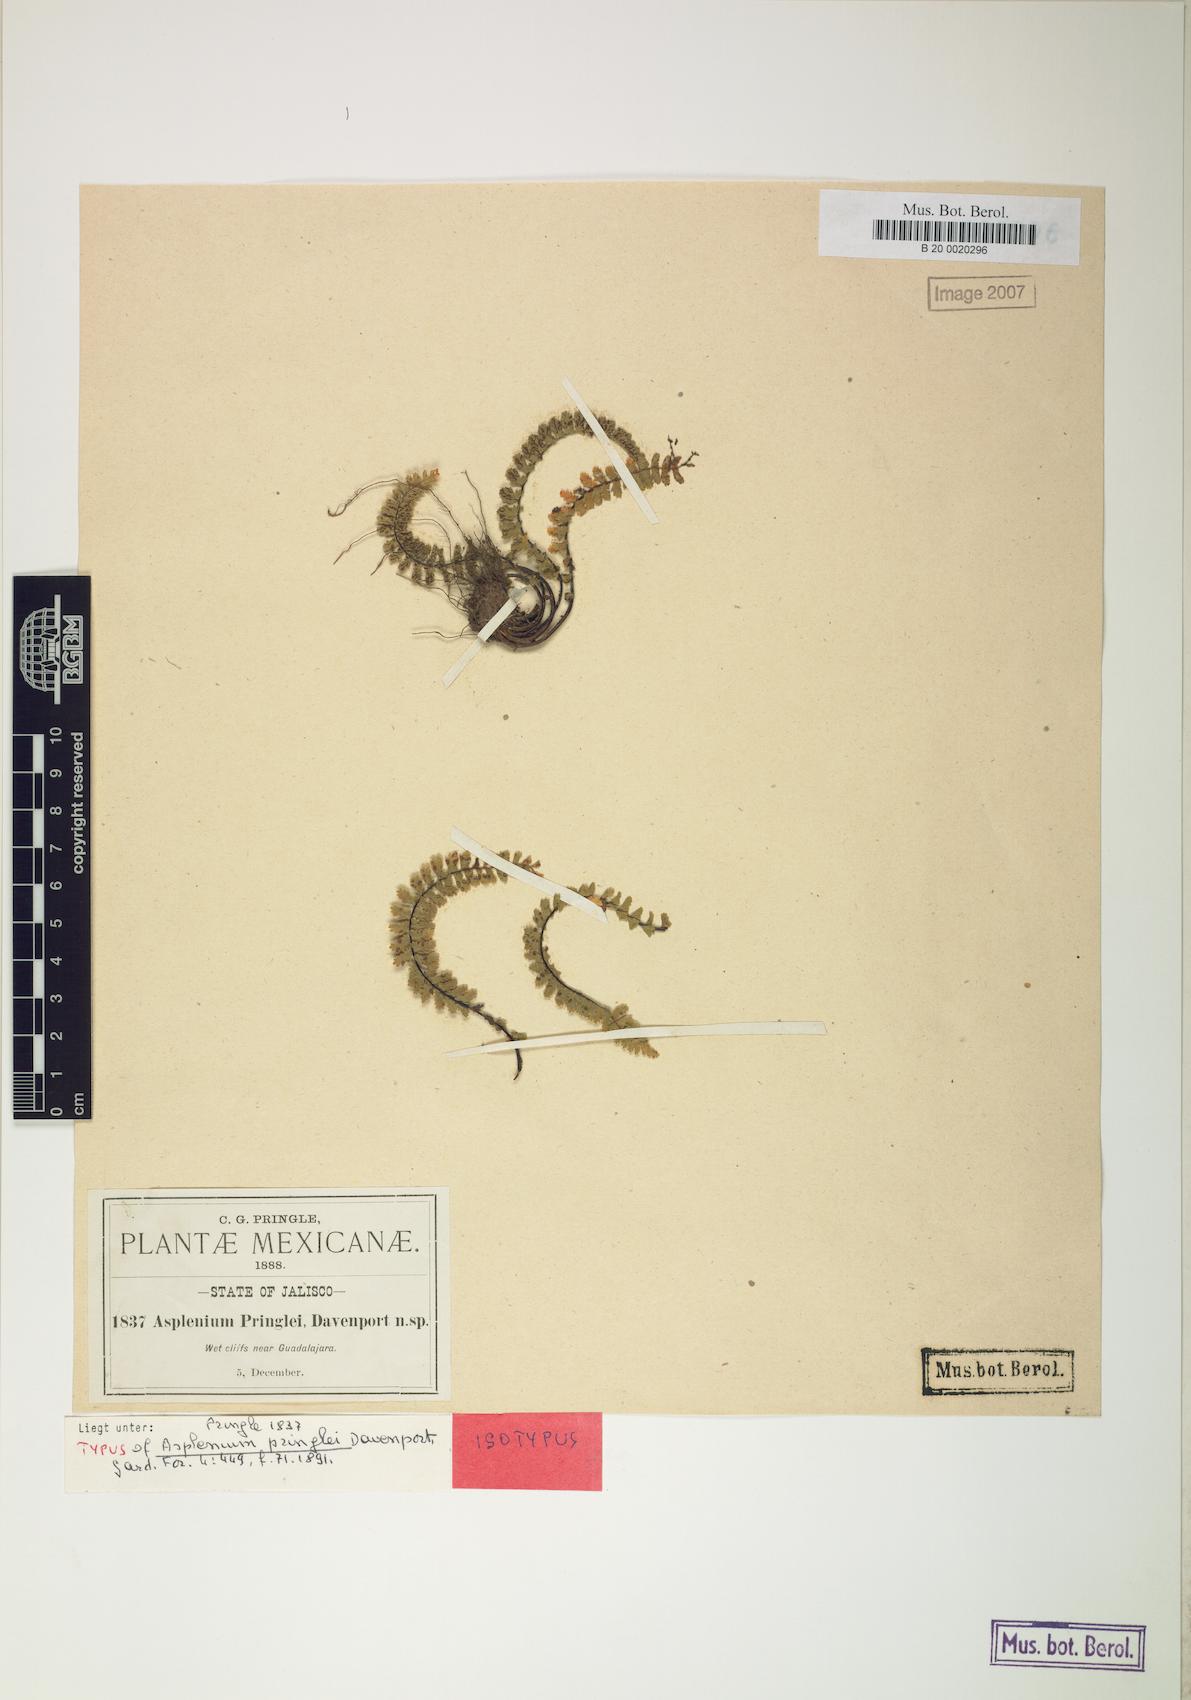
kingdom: Plantae
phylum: Tracheophyta
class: Polypodiopsida
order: Polypodiales
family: Aspleniaceae
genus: Asplenium
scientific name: Asplenium pringlei
